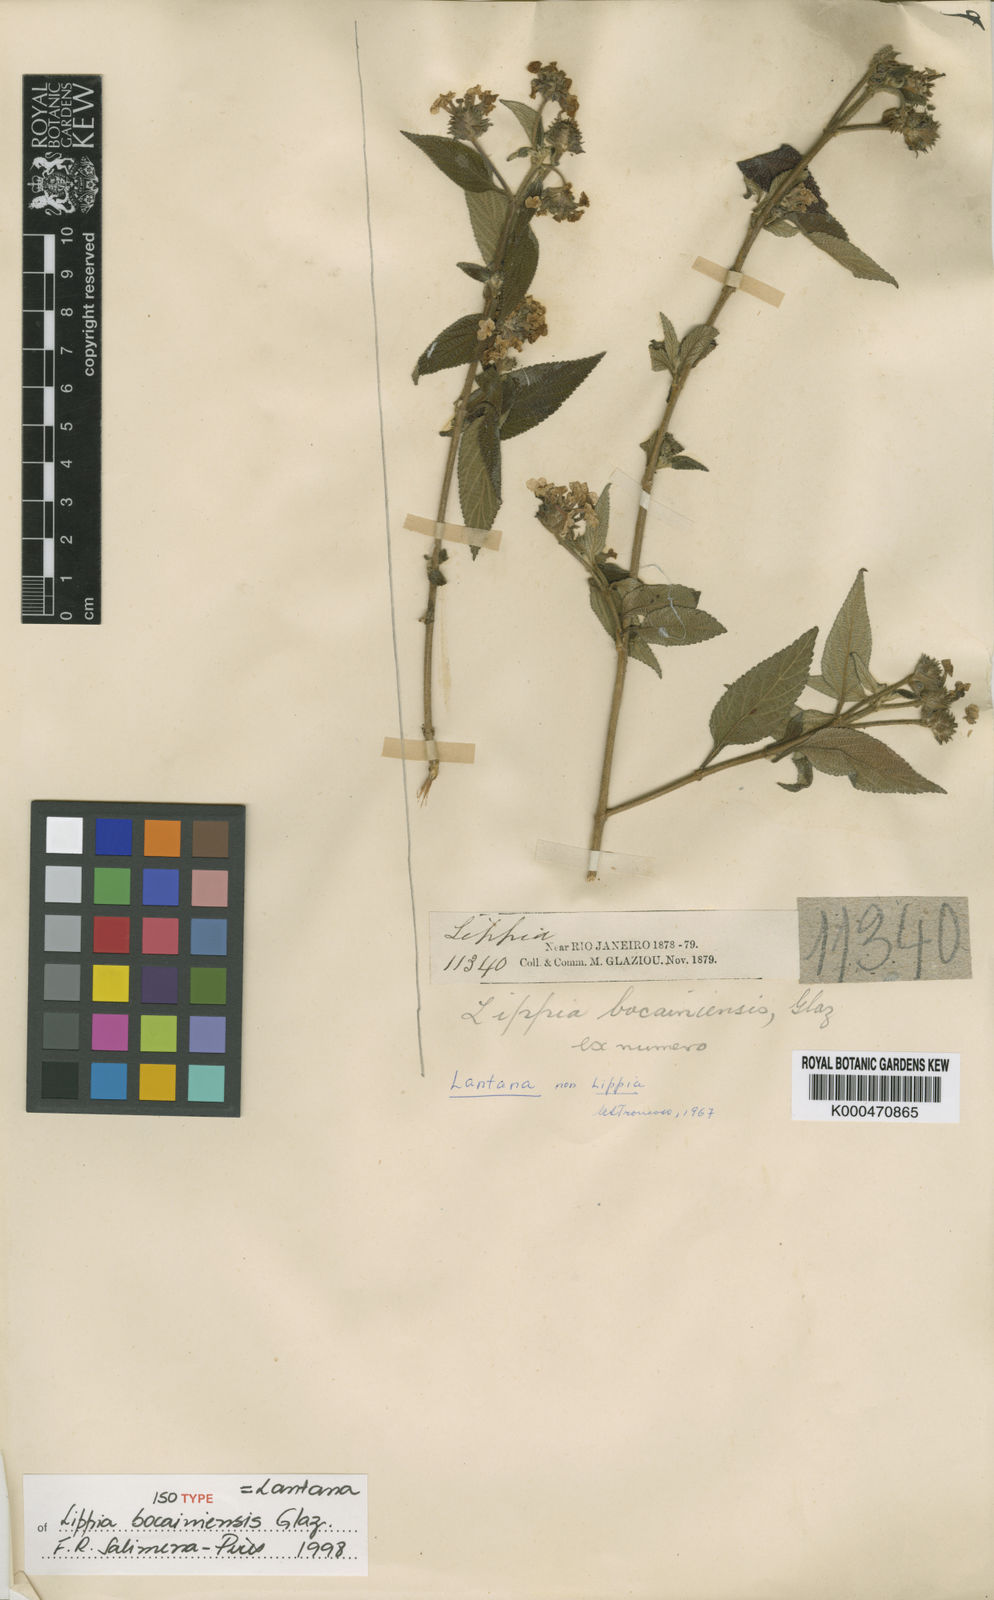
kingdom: Plantae
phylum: Tracheophyta
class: Magnoliopsida
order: Lamiales
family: Verbenaceae
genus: Lantana
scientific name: Lantana bocainiensis
